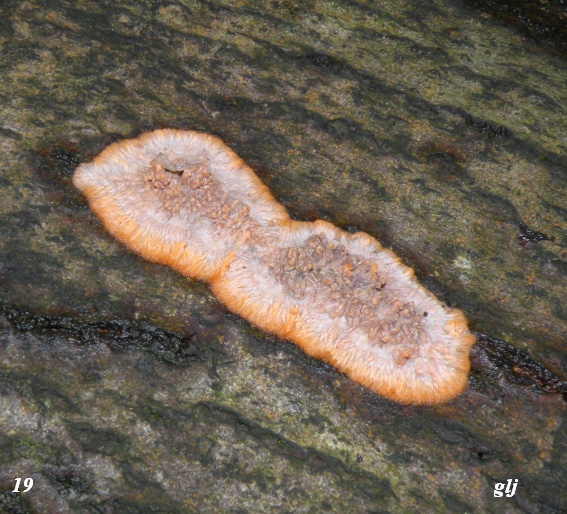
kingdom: Fungi
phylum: Basidiomycota
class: Agaricomycetes
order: Polyporales
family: Meruliaceae
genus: Phlebia
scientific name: Phlebia radiata
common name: stråle-åresvamp
